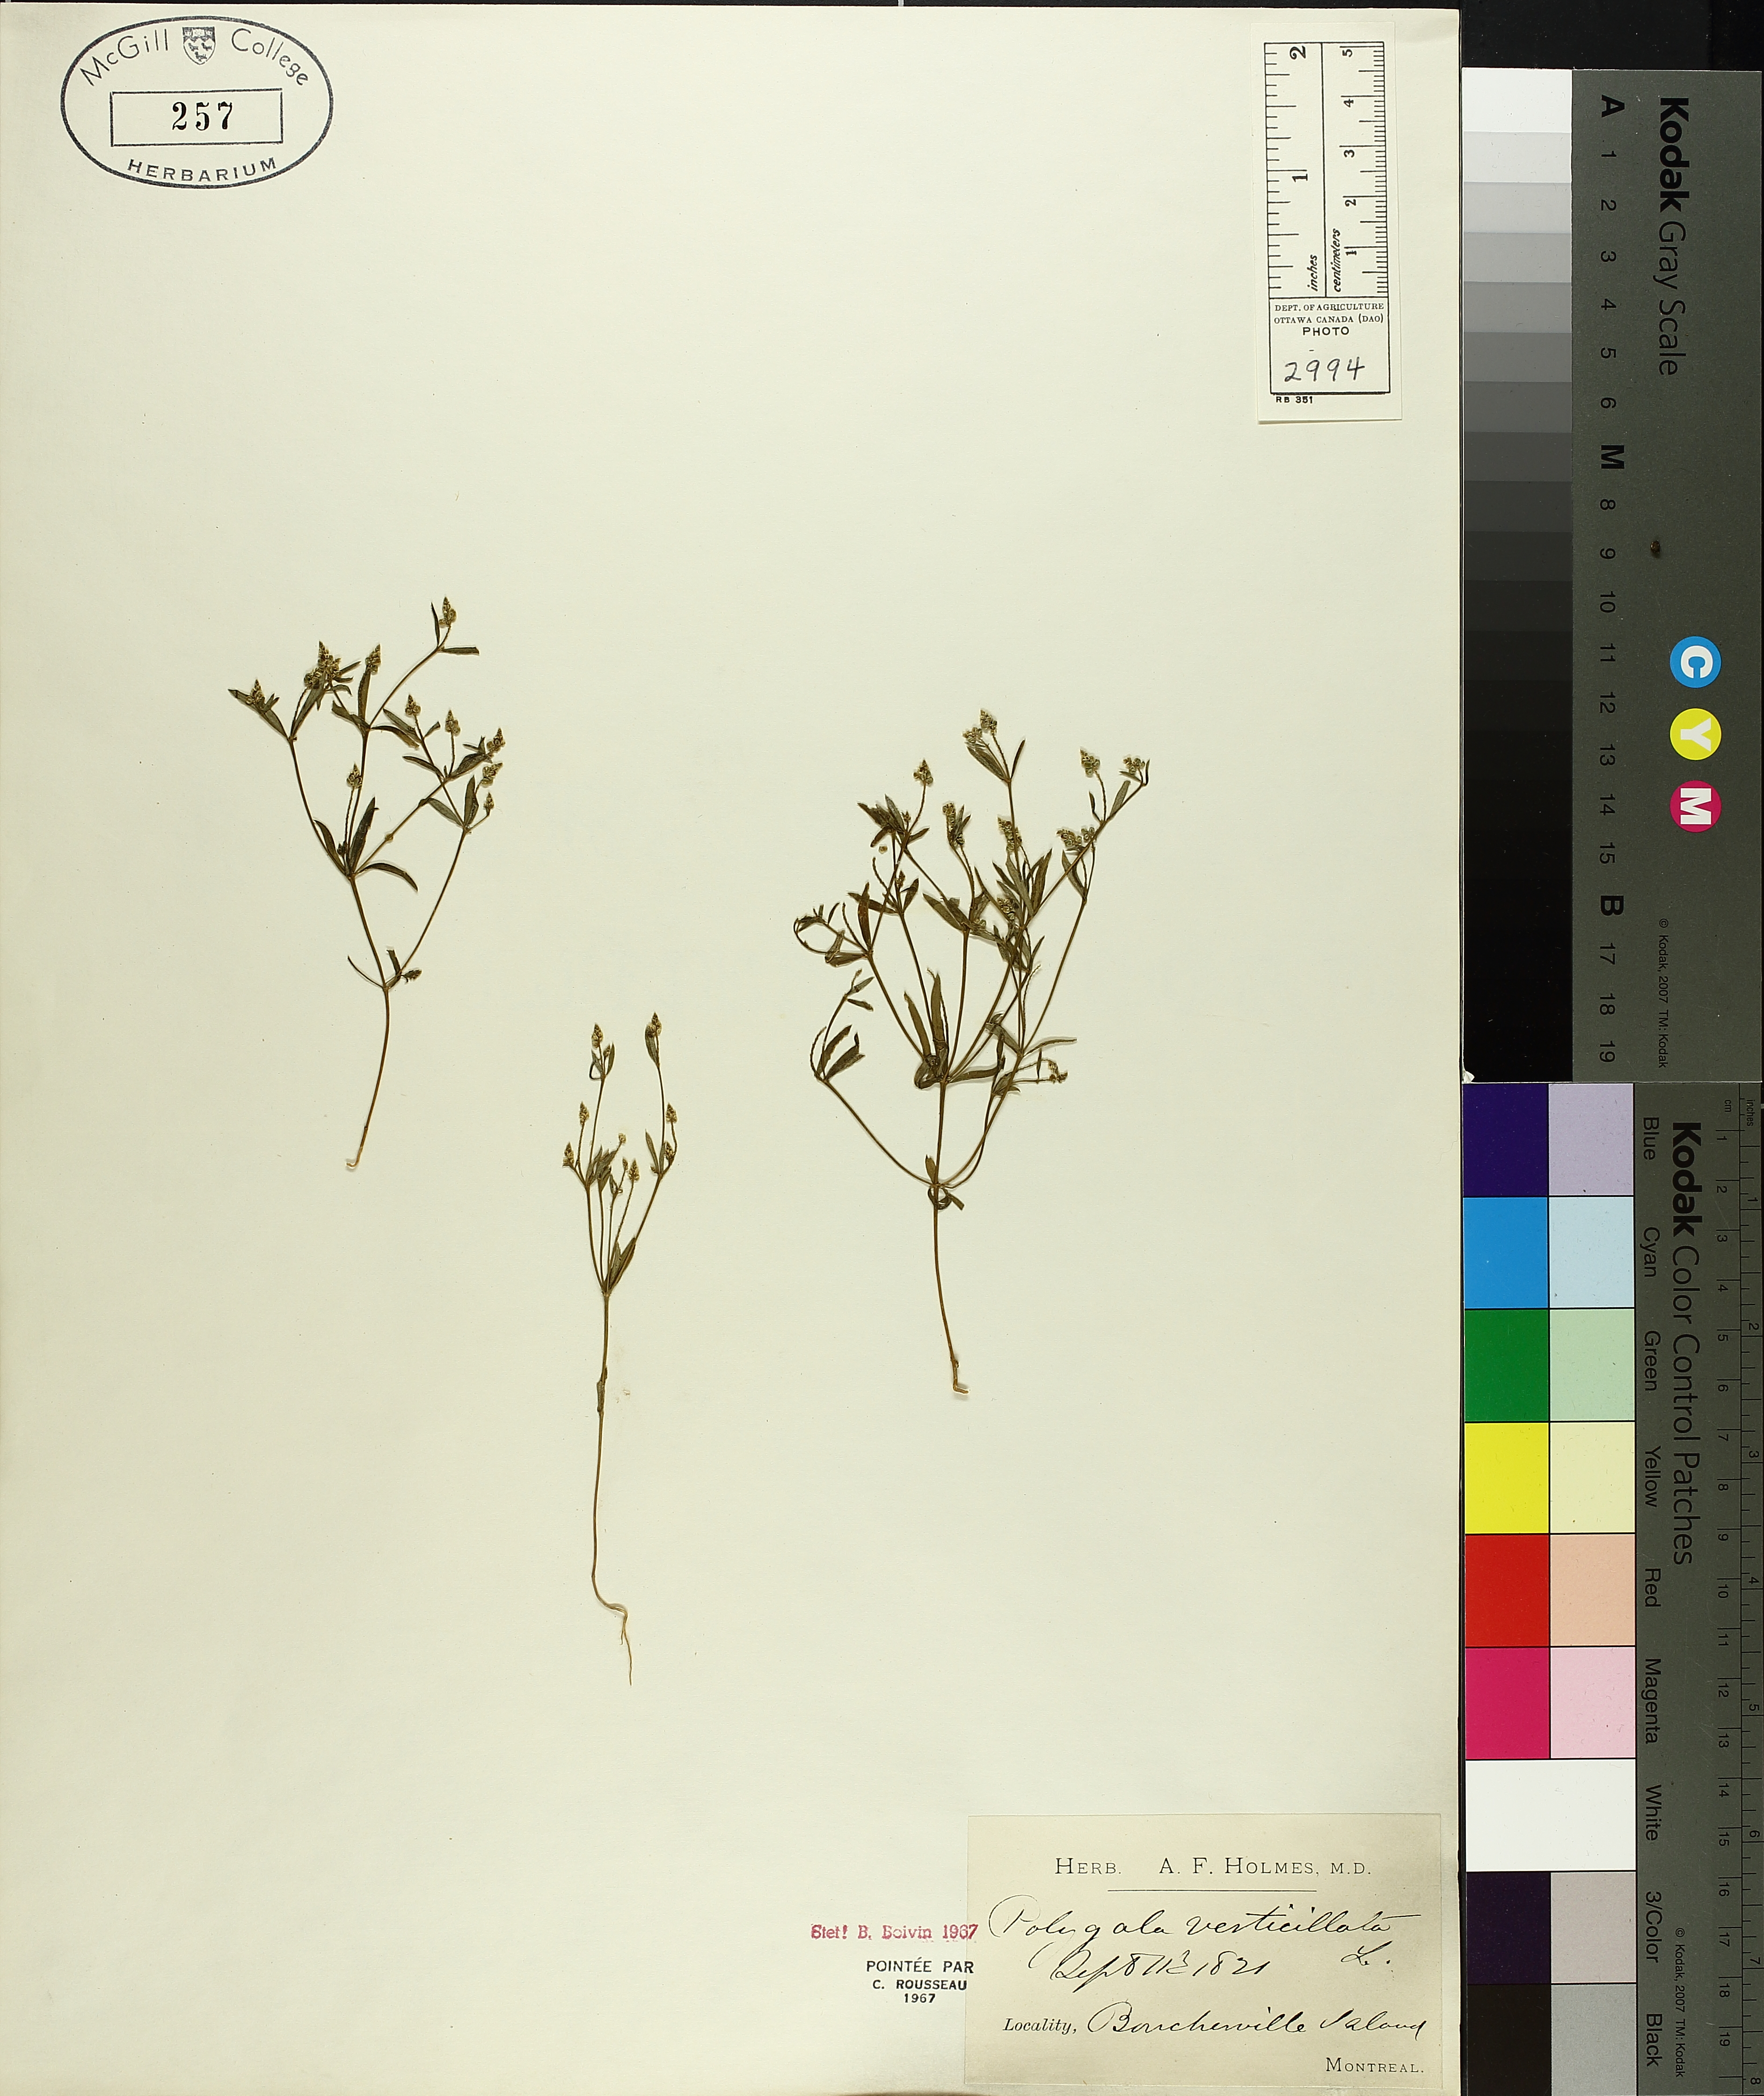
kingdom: Plantae
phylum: Tracheophyta
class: Magnoliopsida
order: Fabales
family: Polygalaceae
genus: Polygala
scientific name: Polygala verticillata
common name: Whorl milkwort
